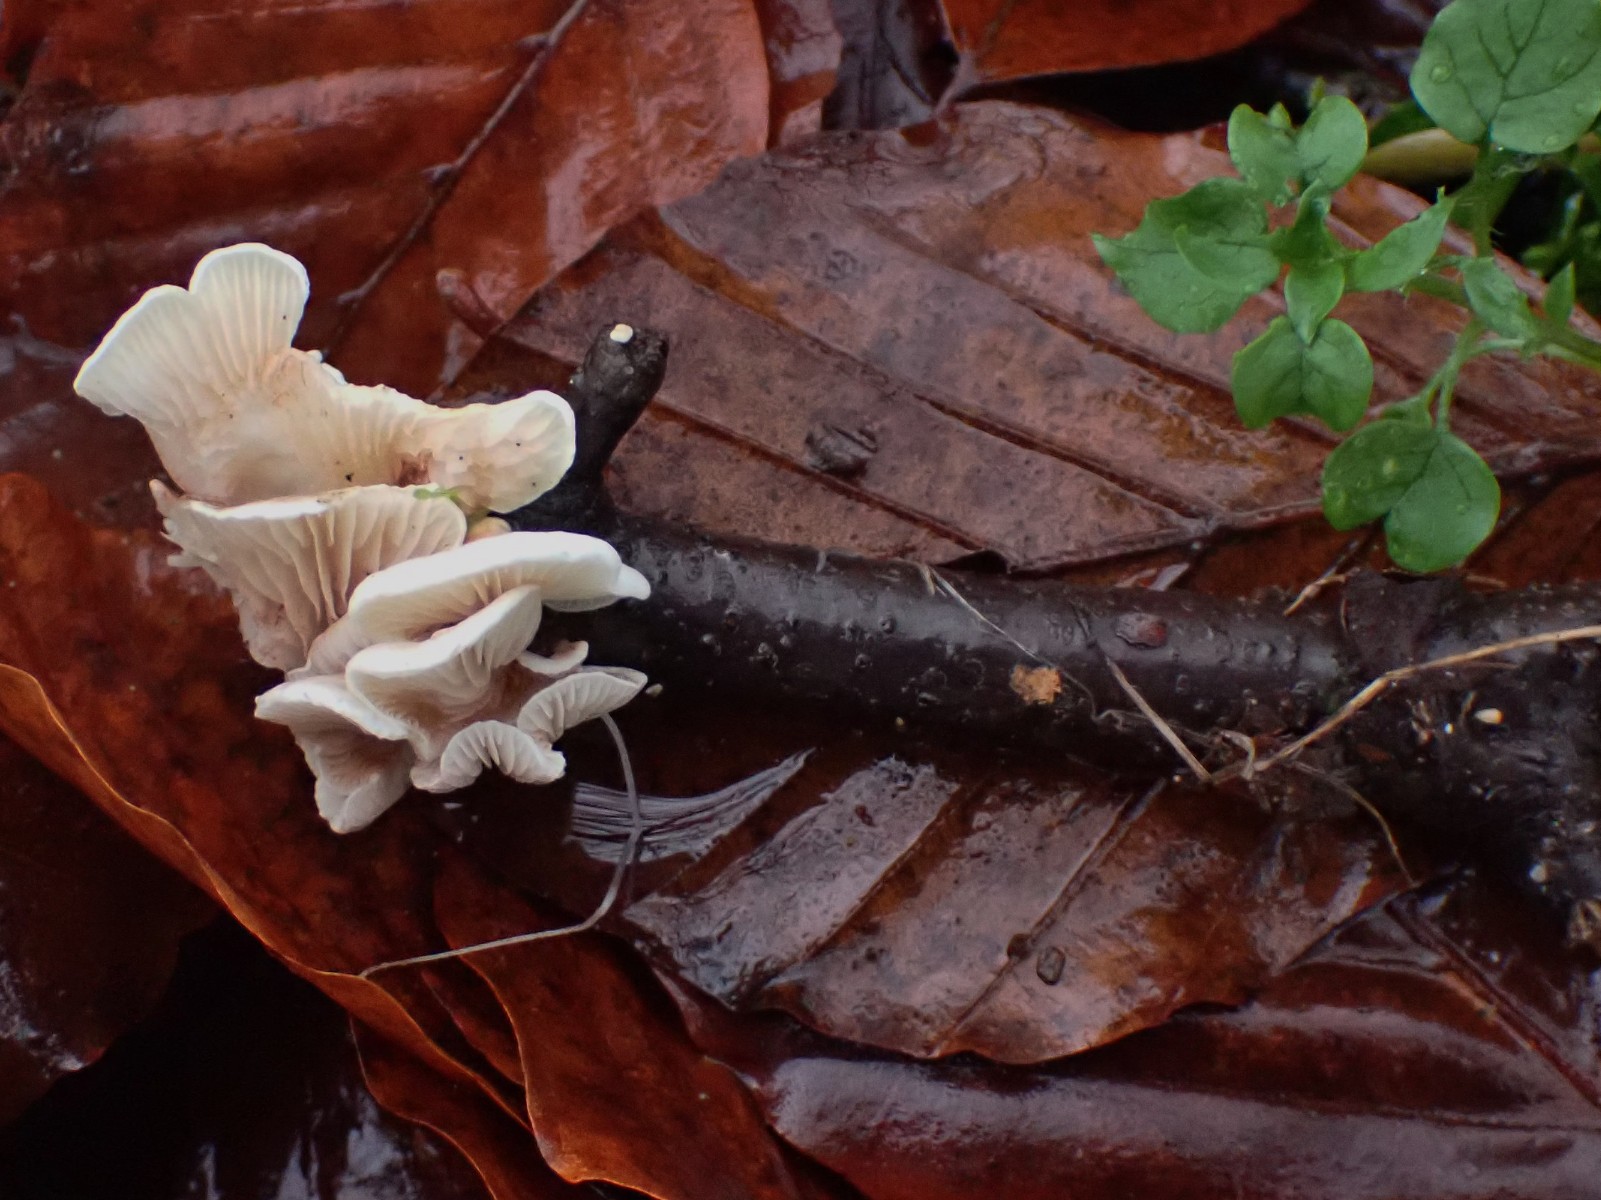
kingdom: Fungi
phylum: Basidiomycota
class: Agaricomycetes
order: Agaricales
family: Crepidotaceae
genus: Crepidotus
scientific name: Crepidotus
